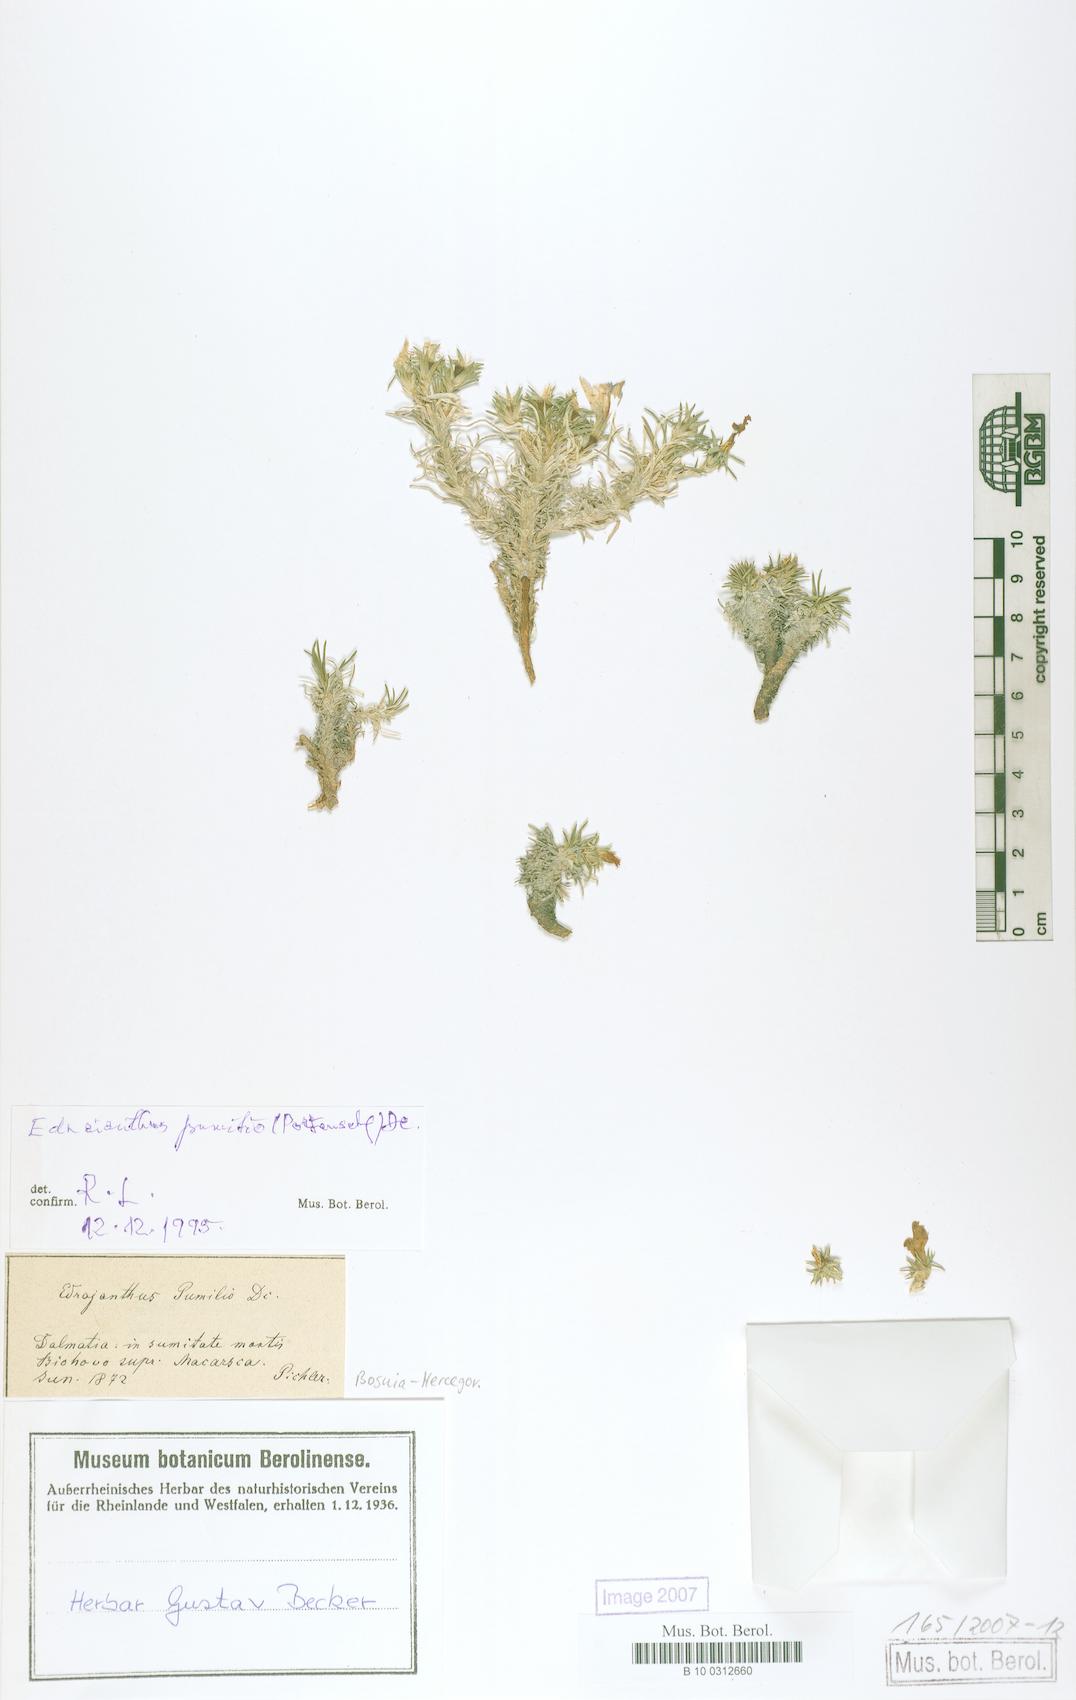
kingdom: Plantae
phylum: Tracheophyta
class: Magnoliopsida
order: Asterales
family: Campanulaceae
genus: Edraianthus
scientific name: Edraianthus pumilio
